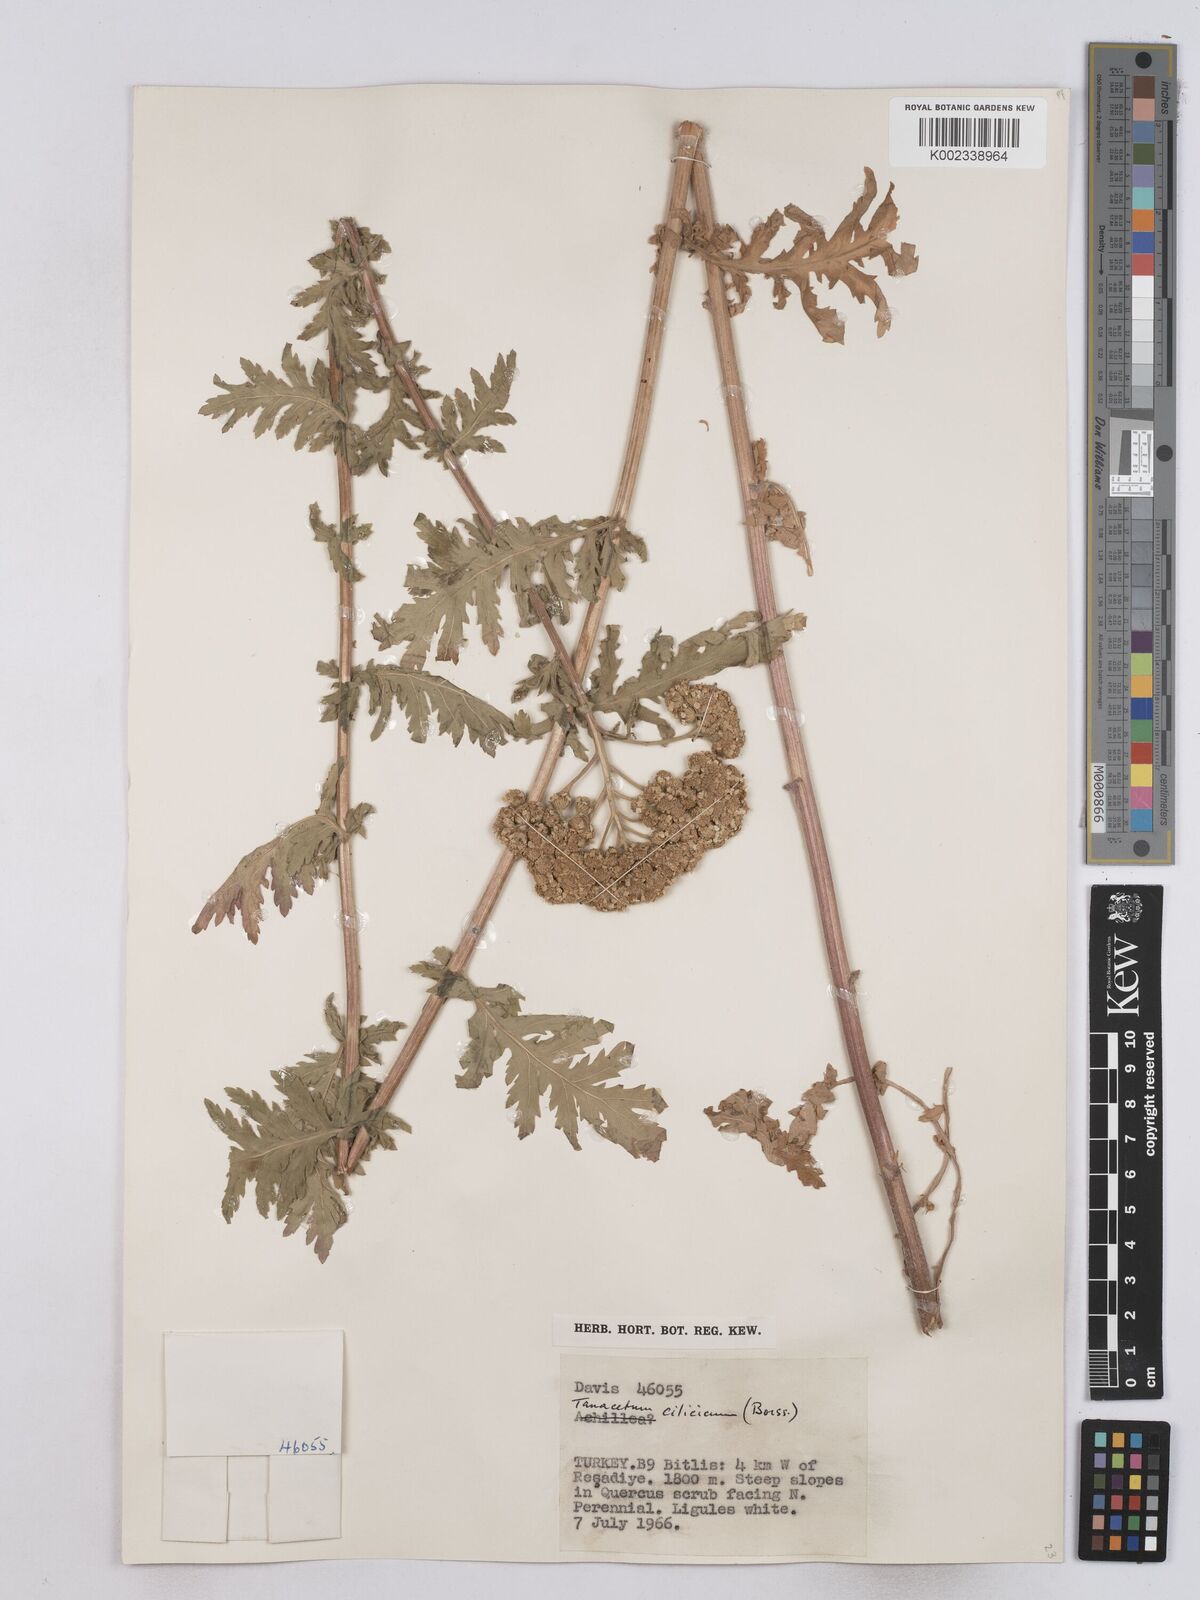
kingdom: Plantae
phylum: Tracheophyta
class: Magnoliopsida
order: Asterales
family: Asteraceae
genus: Tanacetum
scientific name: Tanacetum cilicicum
